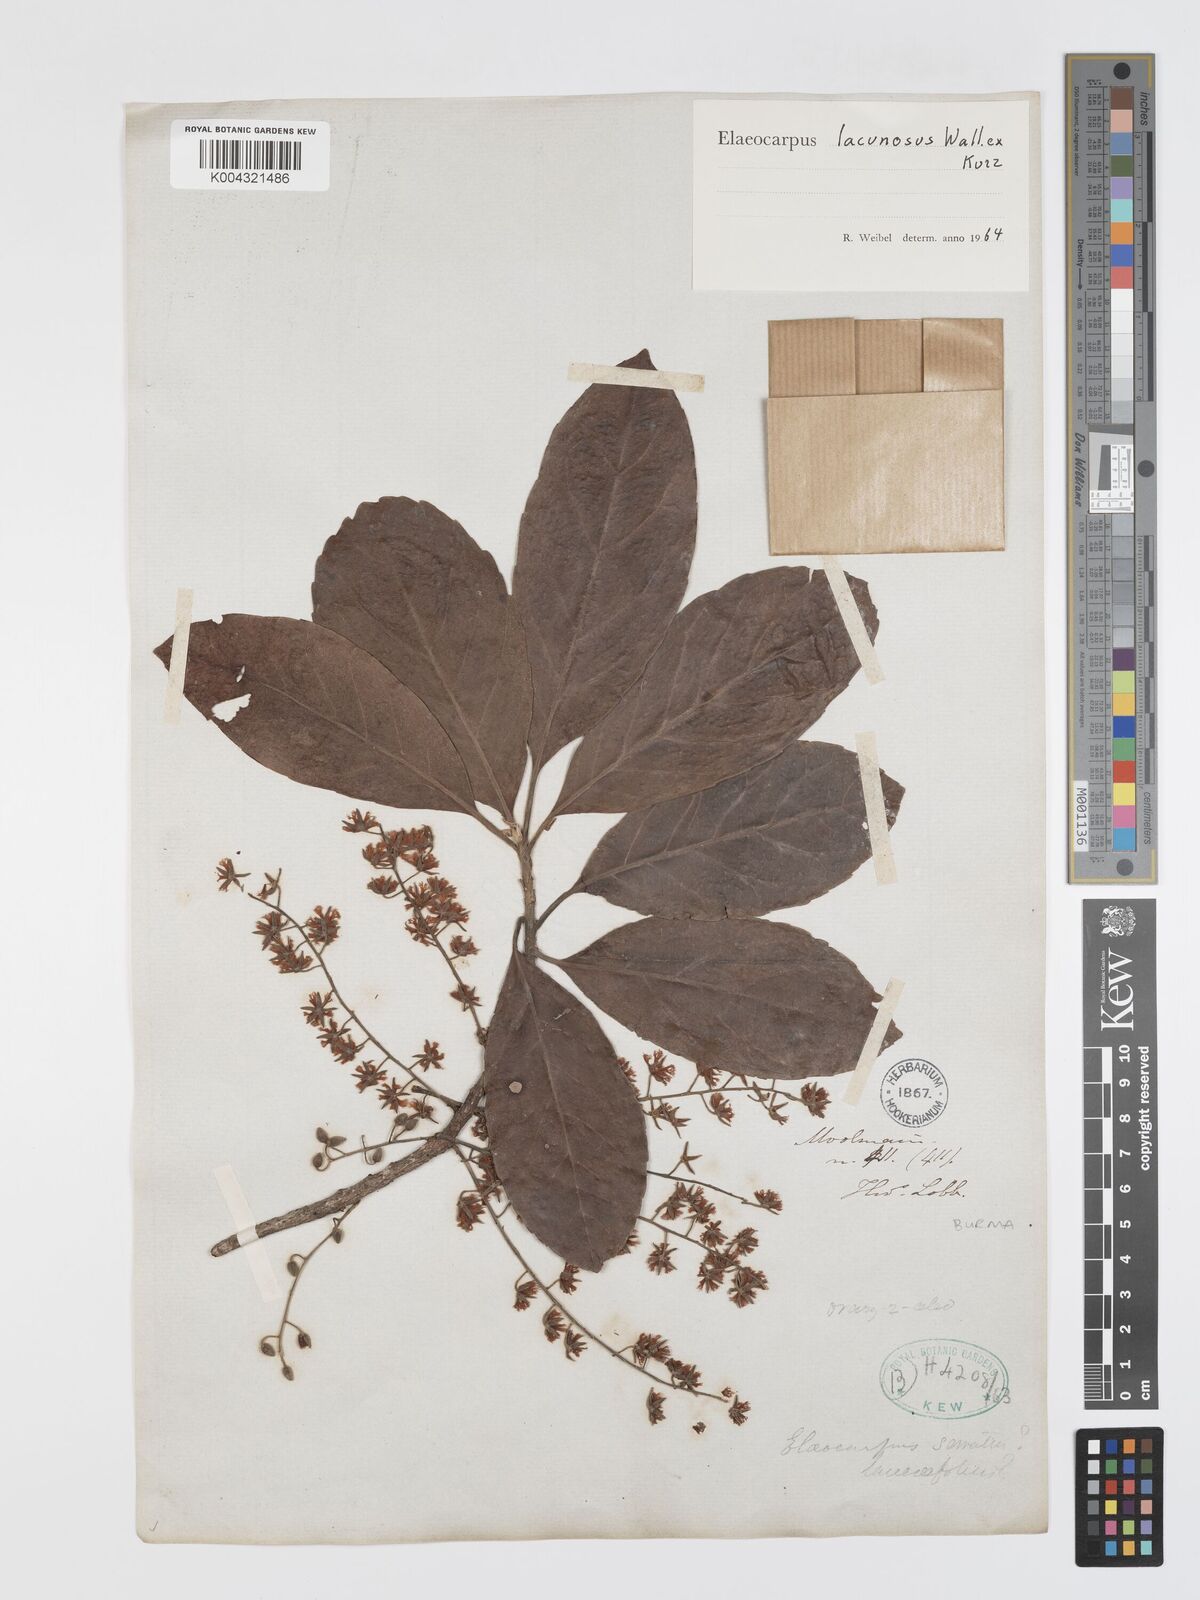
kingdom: Plantae
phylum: Tracheophyta
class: Magnoliopsida
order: Oxalidales
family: Elaeocarpaceae
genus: Elaeocarpus
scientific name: Elaeocarpus lanceifolius
